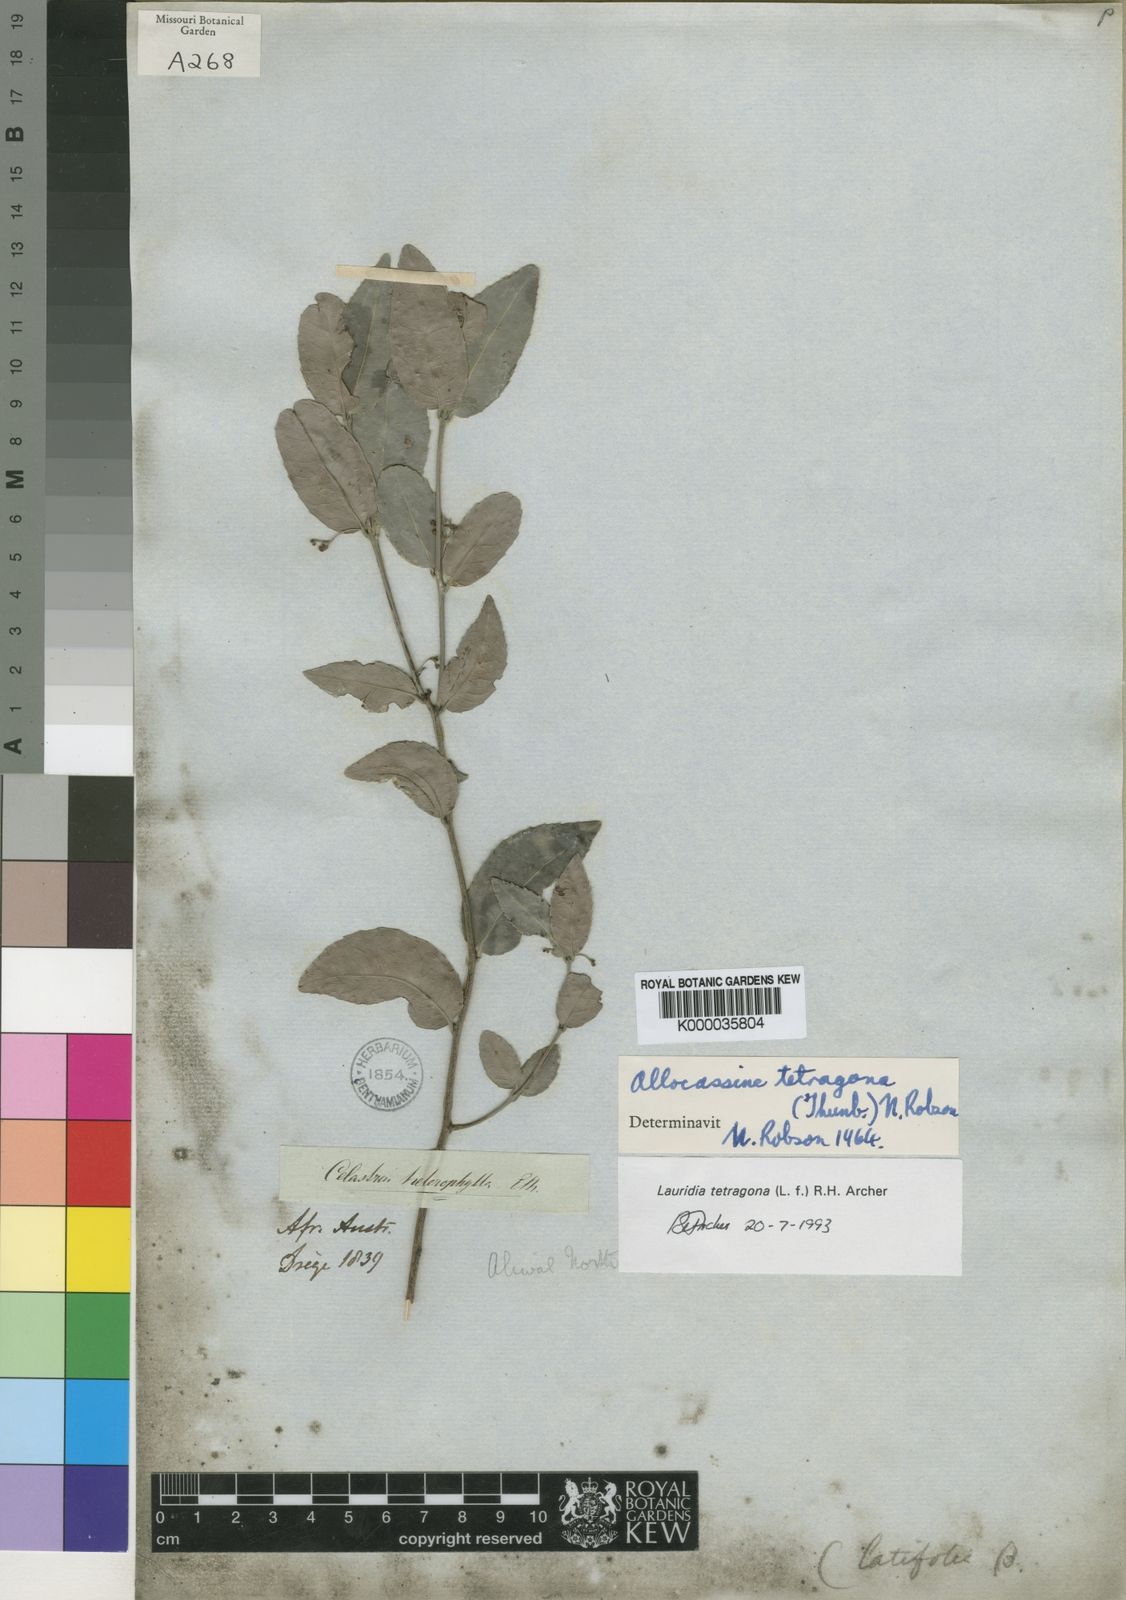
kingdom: Plantae
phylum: Tracheophyta
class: Magnoliopsida
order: Celastrales
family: Celastraceae
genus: Lauridia
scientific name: Lauridia tetragona
